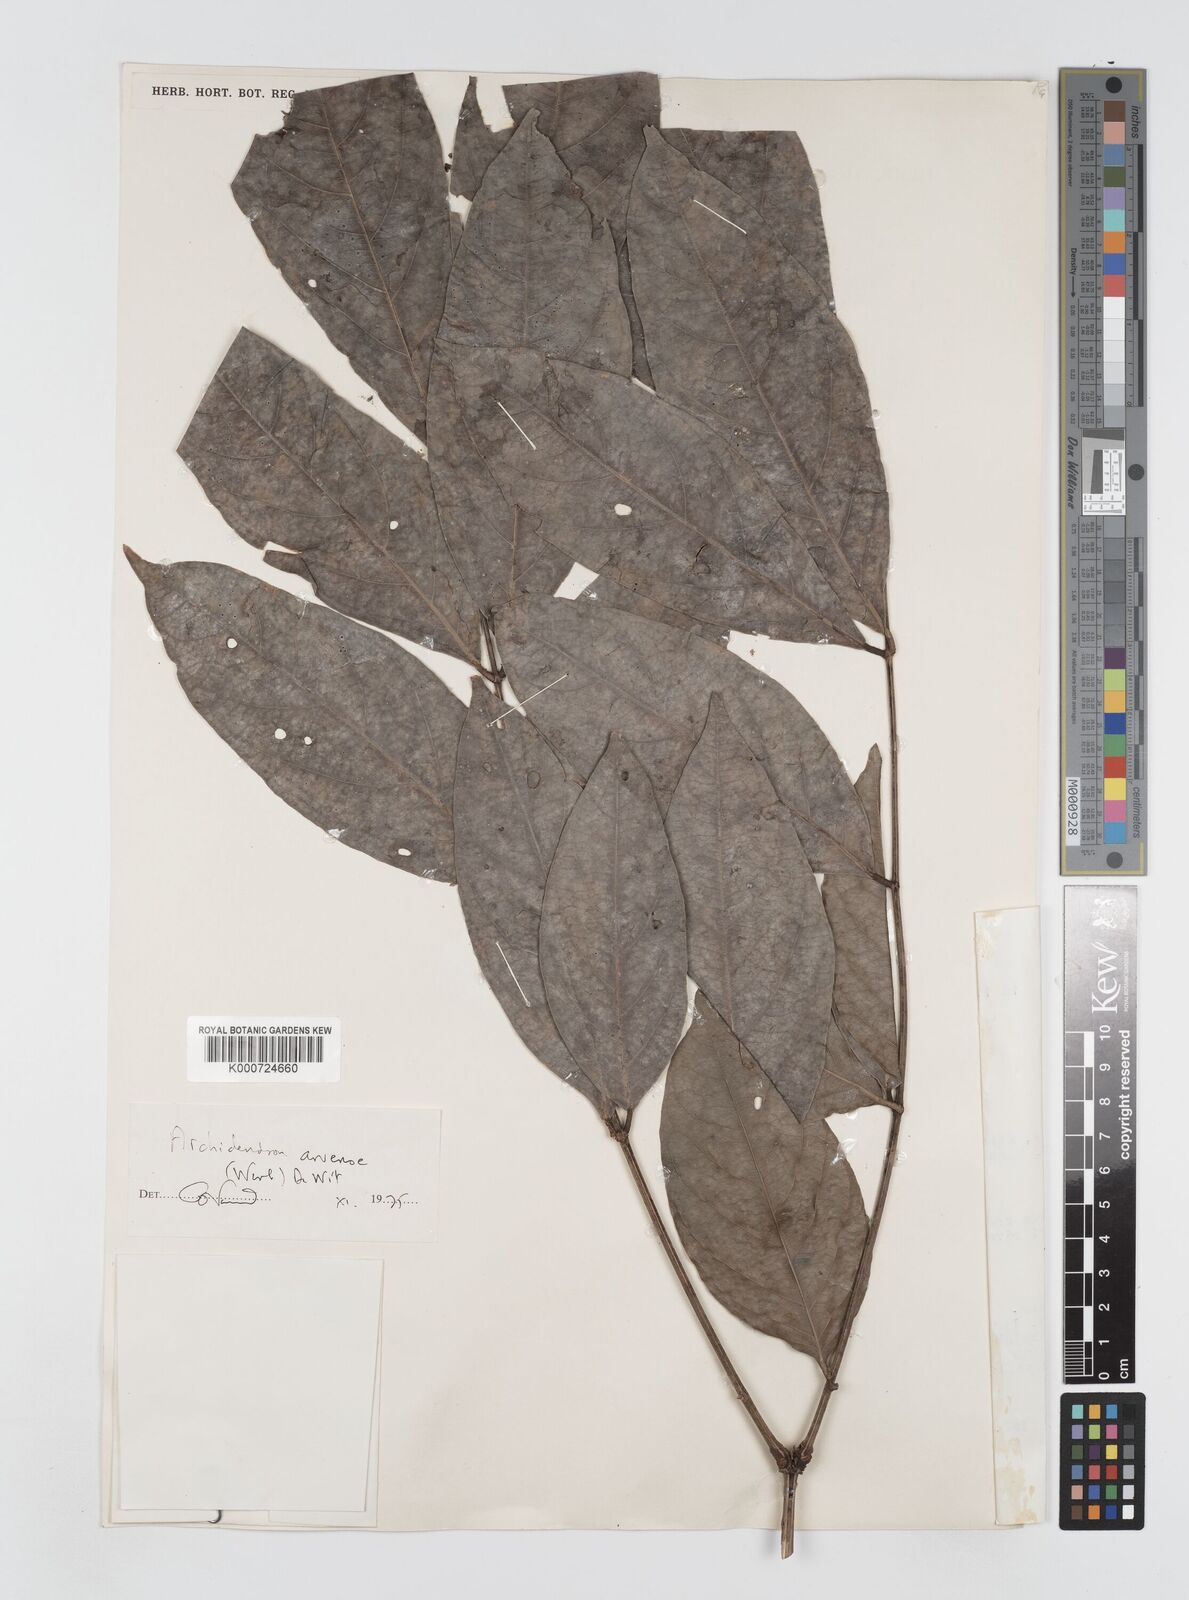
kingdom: Plantae
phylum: Tracheophyta
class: Magnoliopsida
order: Fabales
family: Fabaceae
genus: Archidendron
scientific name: Archidendron aruense
